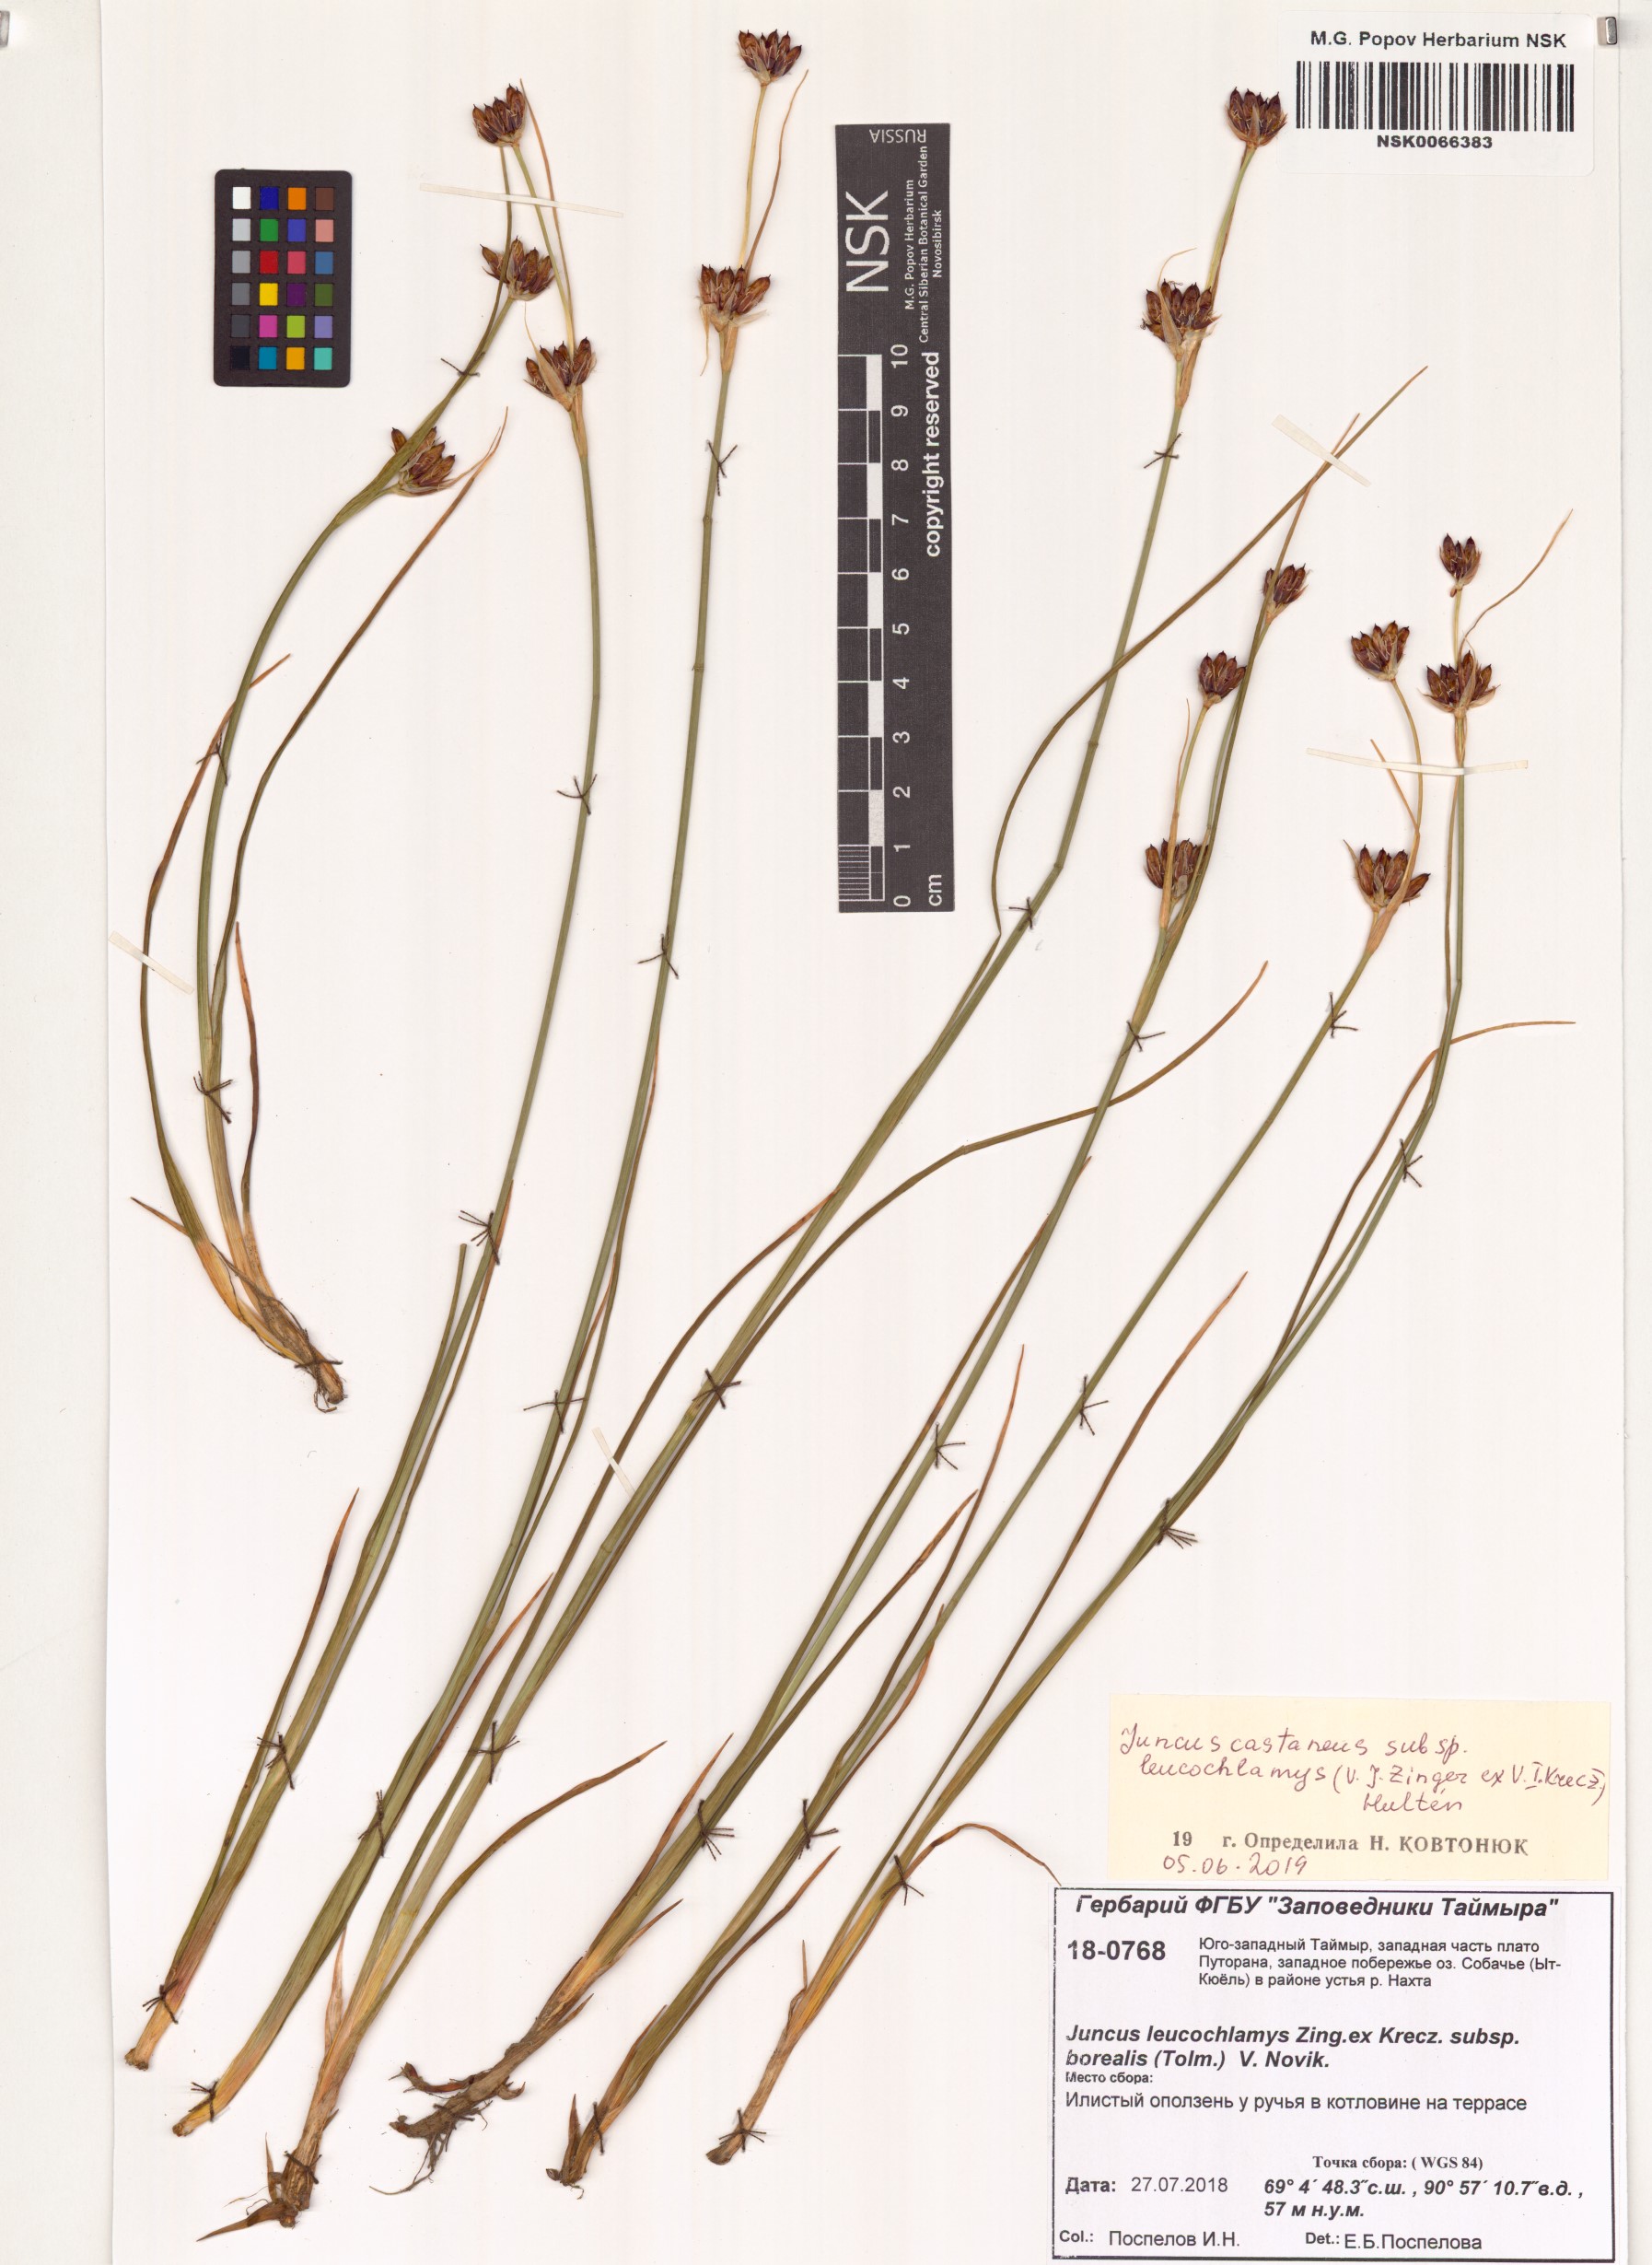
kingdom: Plantae
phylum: Tracheophyta
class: Liliopsida
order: Poales
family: Juncaceae
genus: Juncus
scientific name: Juncus castaneus
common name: Chestnut rush
